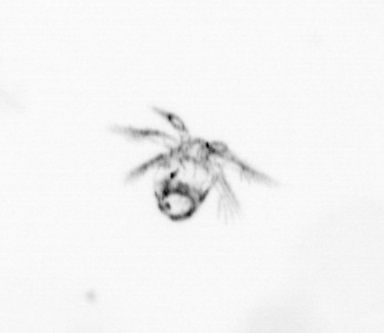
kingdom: Animalia
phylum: Arthropoda
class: Copepoda
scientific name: Copepoda
